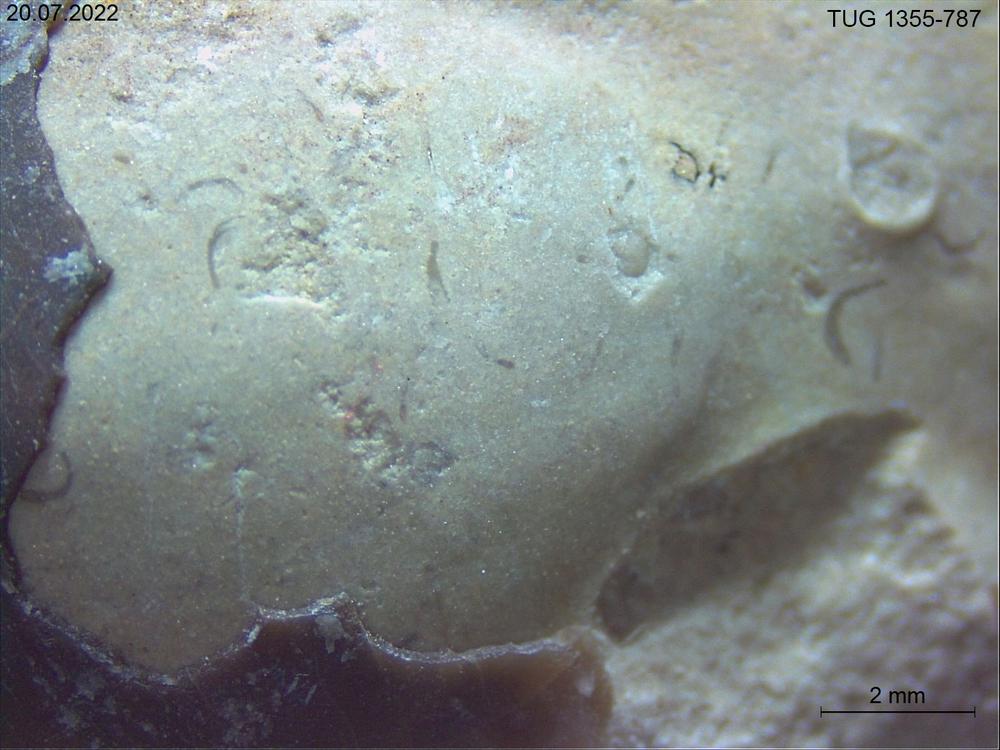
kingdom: Animalia
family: Cornulitidae
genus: Cornulites
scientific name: Cornulites
